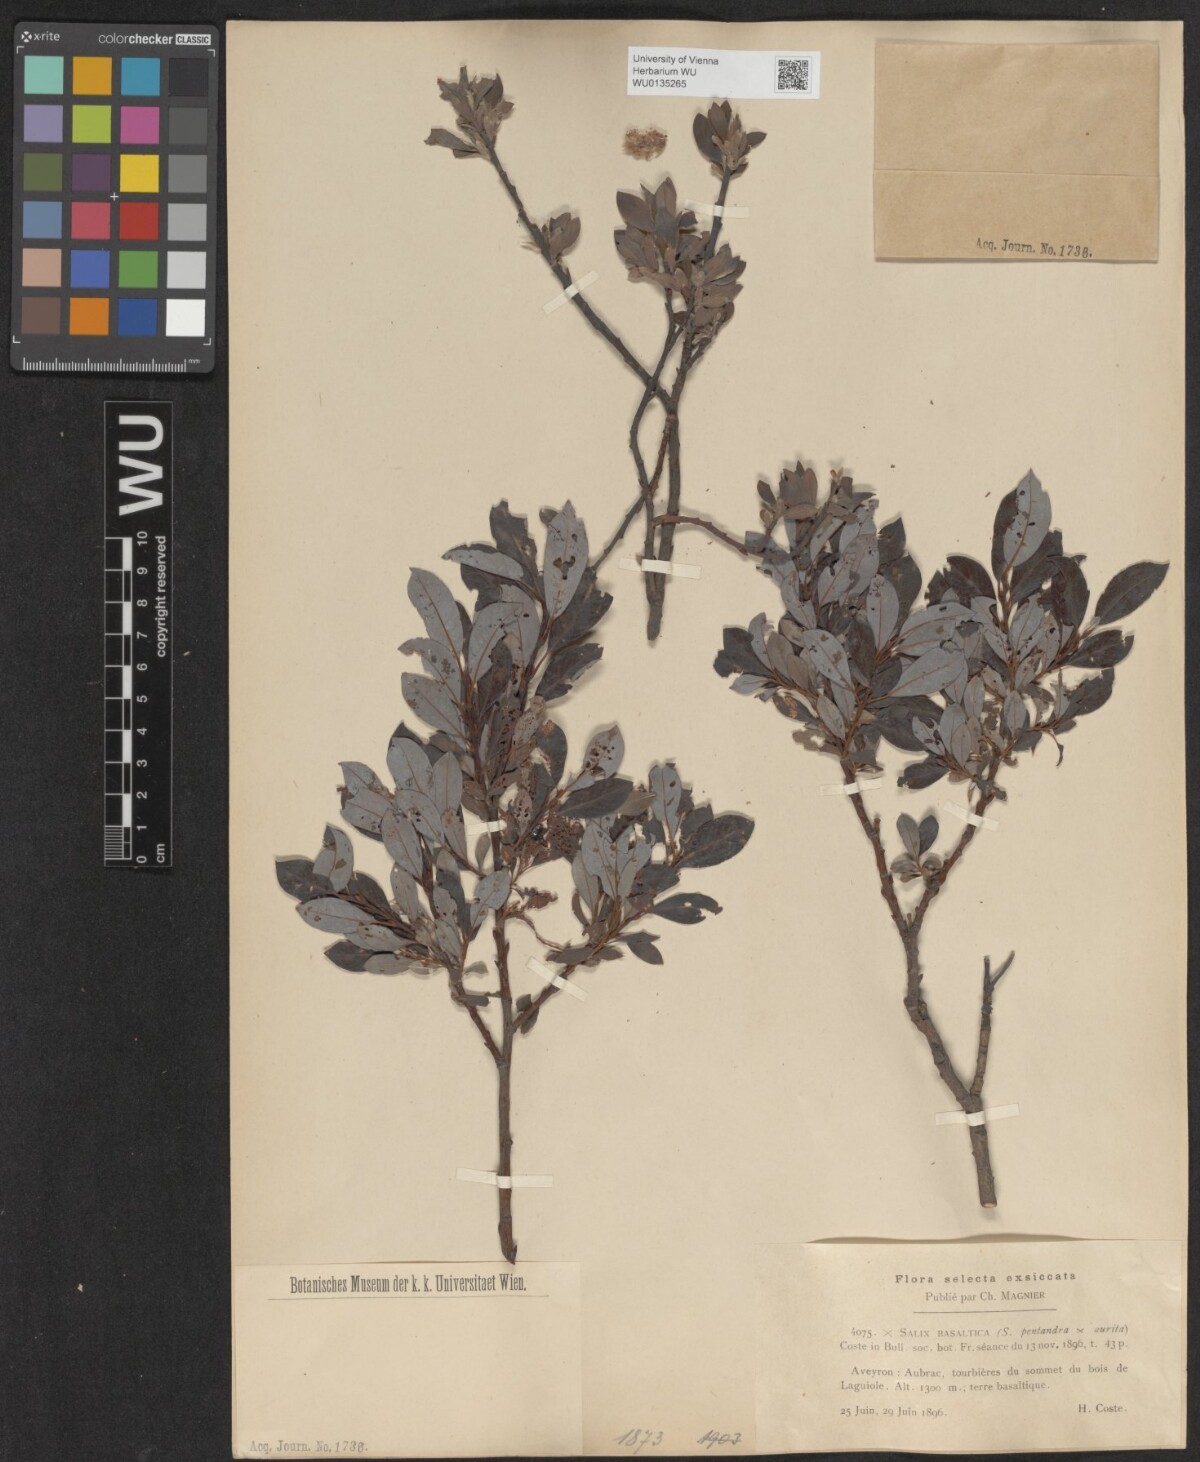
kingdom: Plantae
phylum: Tracheophyta
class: Magnoliopsida
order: Malpighiales
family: Salicaceae
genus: Salix
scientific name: Salix basaltica
